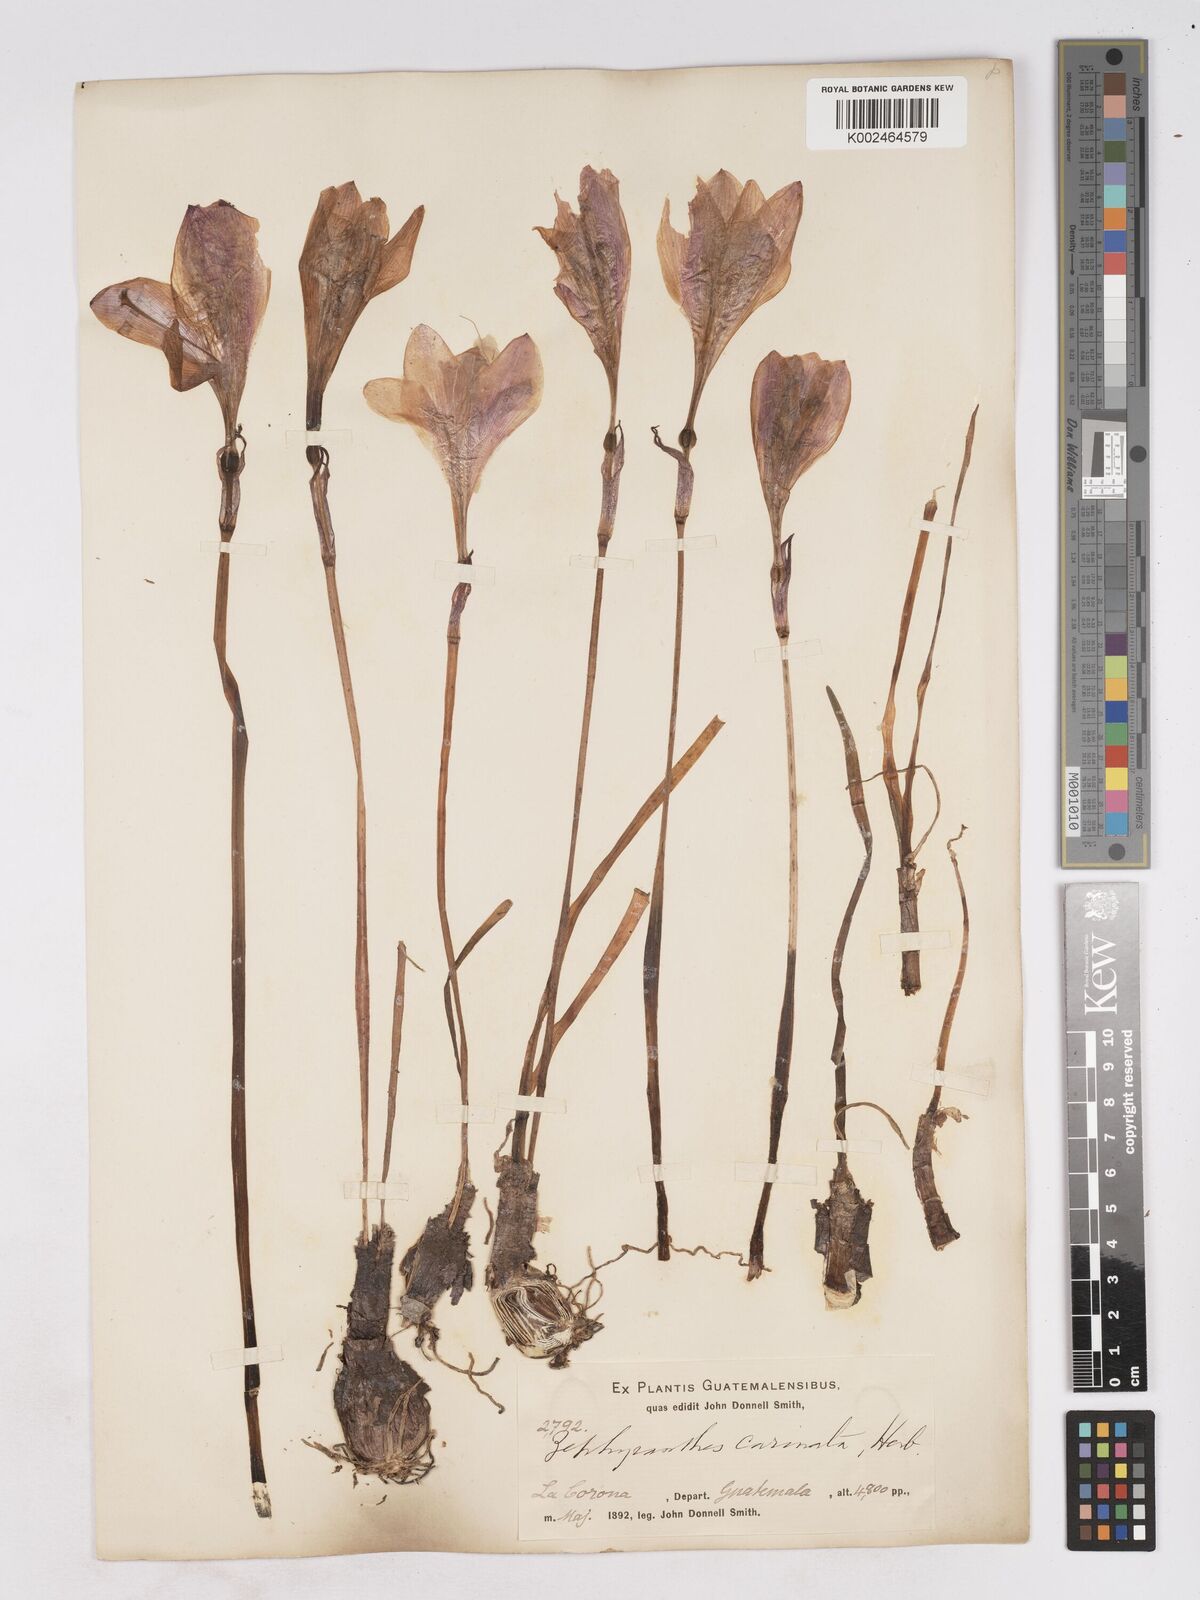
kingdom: Plantae
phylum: Tracheophyta
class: Liliopsida
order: Asparagales
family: Amaryllidaceae
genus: Zephyranthes
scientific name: Zephyranthes minuta
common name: Pink rain lily
